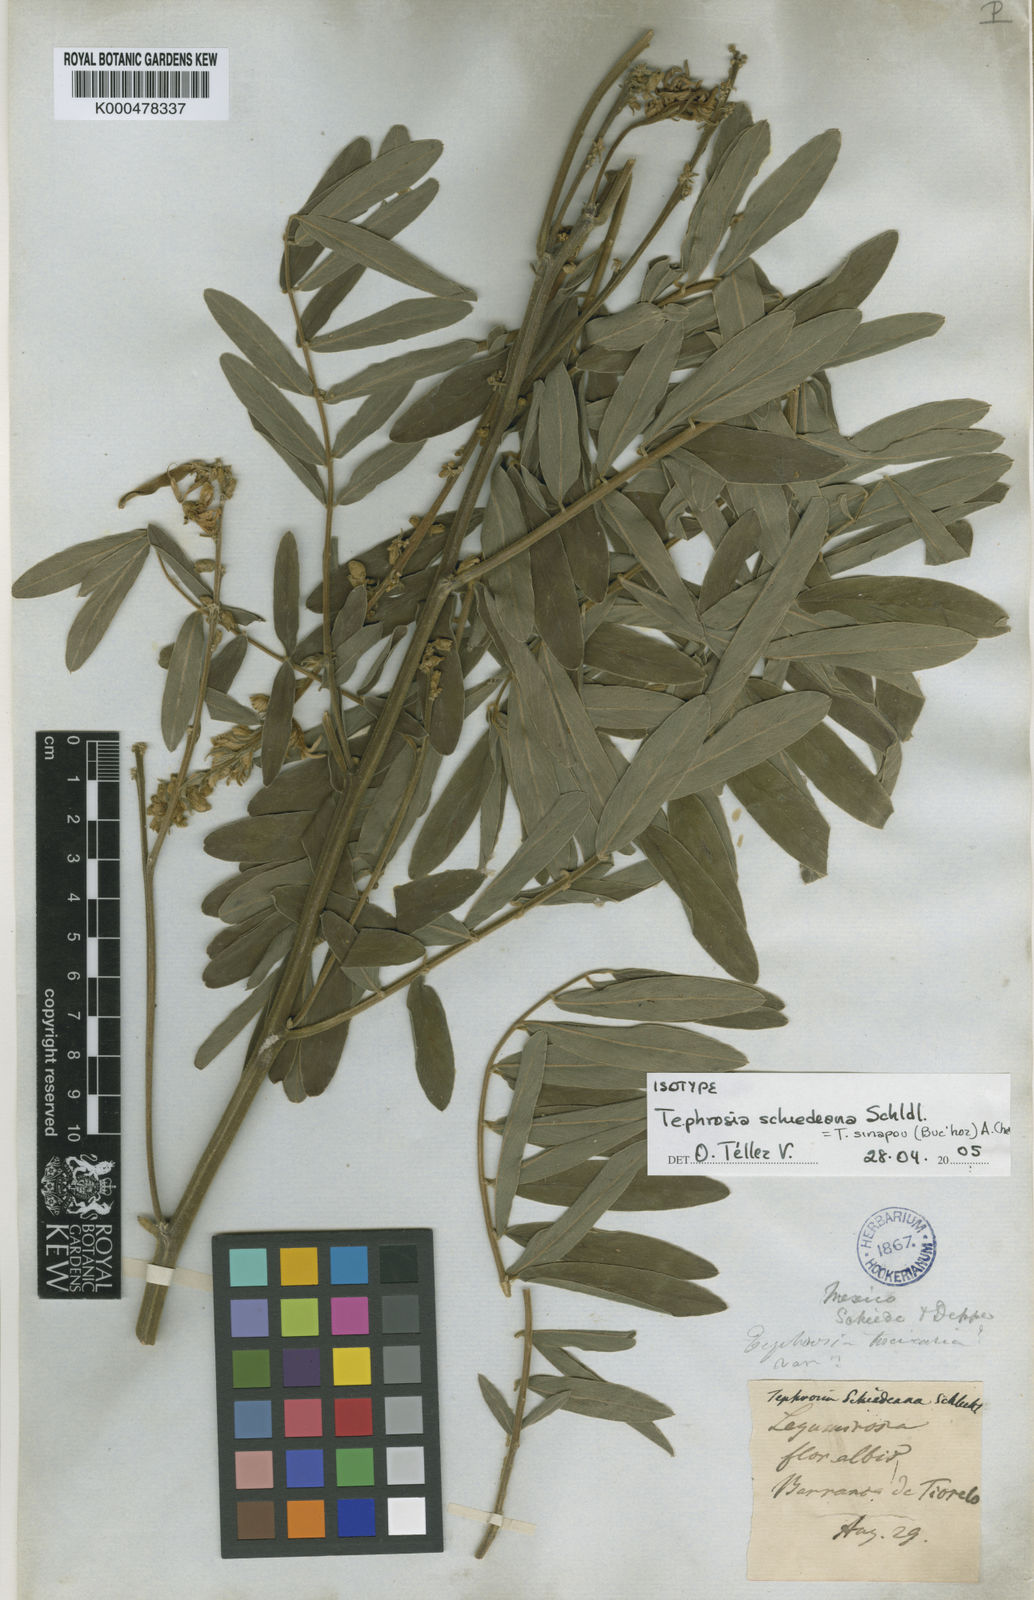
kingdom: Plantae
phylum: Tracheophyta
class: Magnoliopsida
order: Fabales
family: Fabaceae
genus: Tephrosia
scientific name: Tephrosia sinapou
